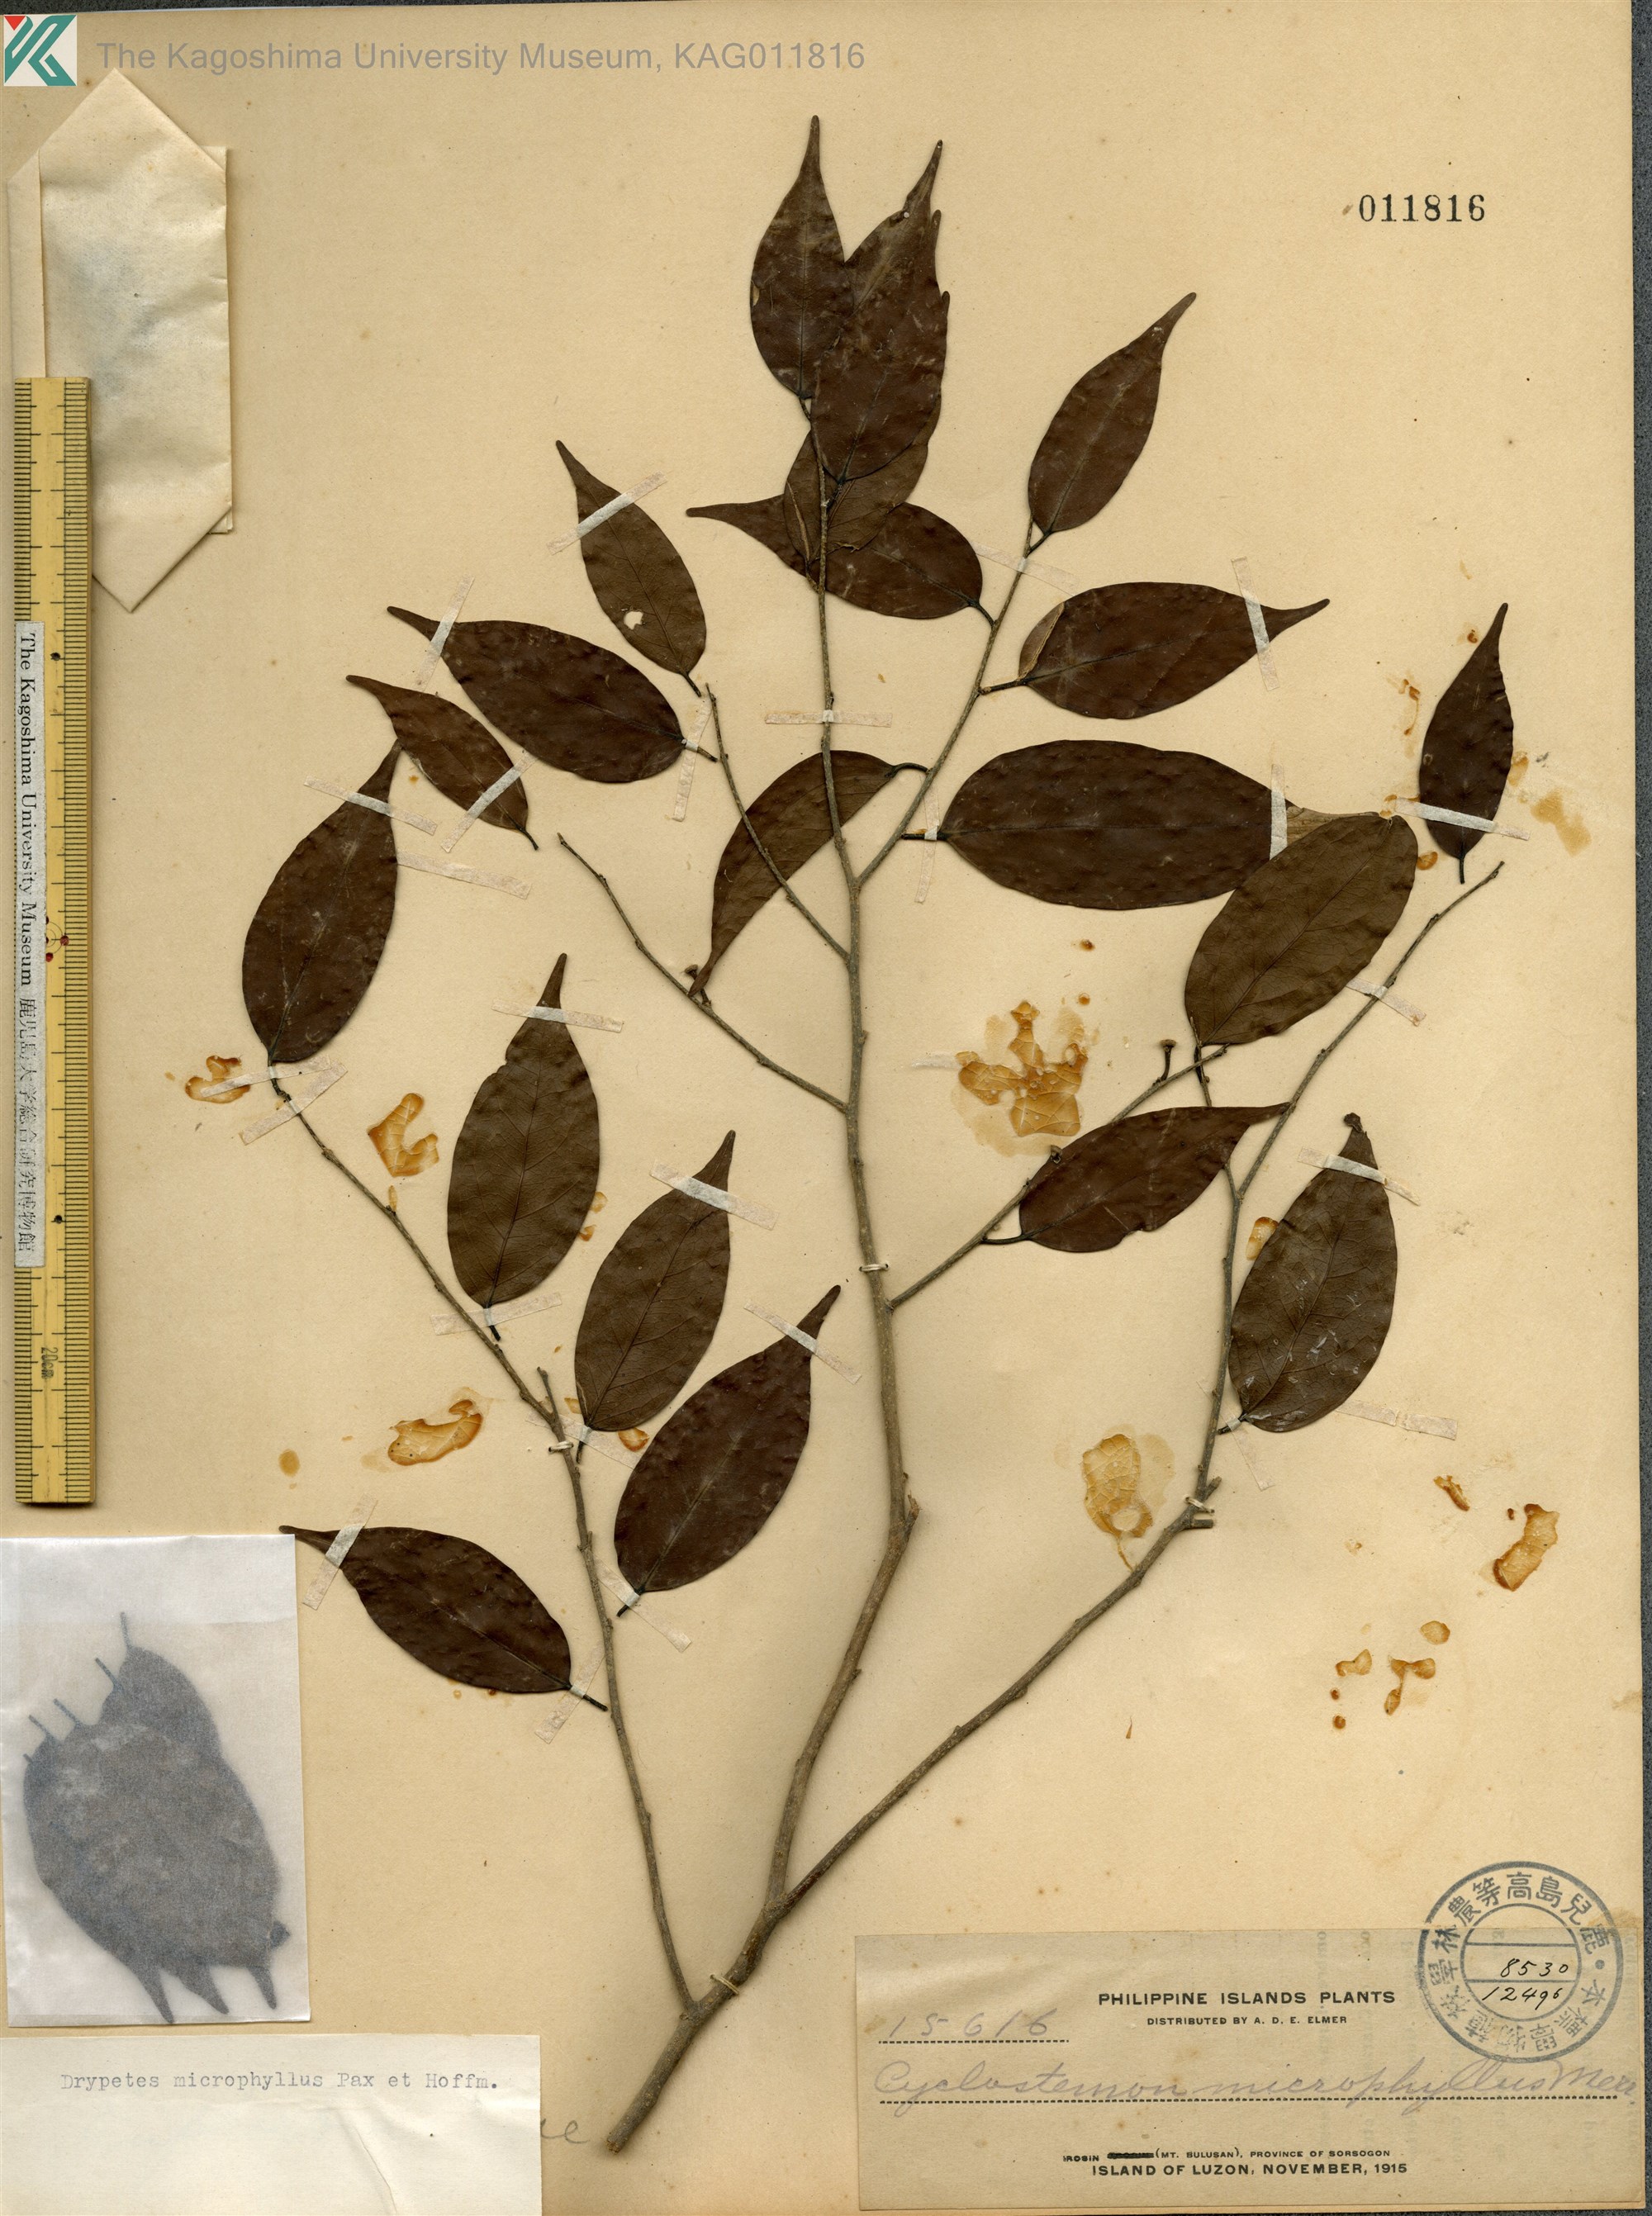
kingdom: Plantae
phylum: Tracheophyta
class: Magnoliopsida
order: Malpighiales
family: Putranjivaceae
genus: Drypetes
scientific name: Drypetes microphylla
